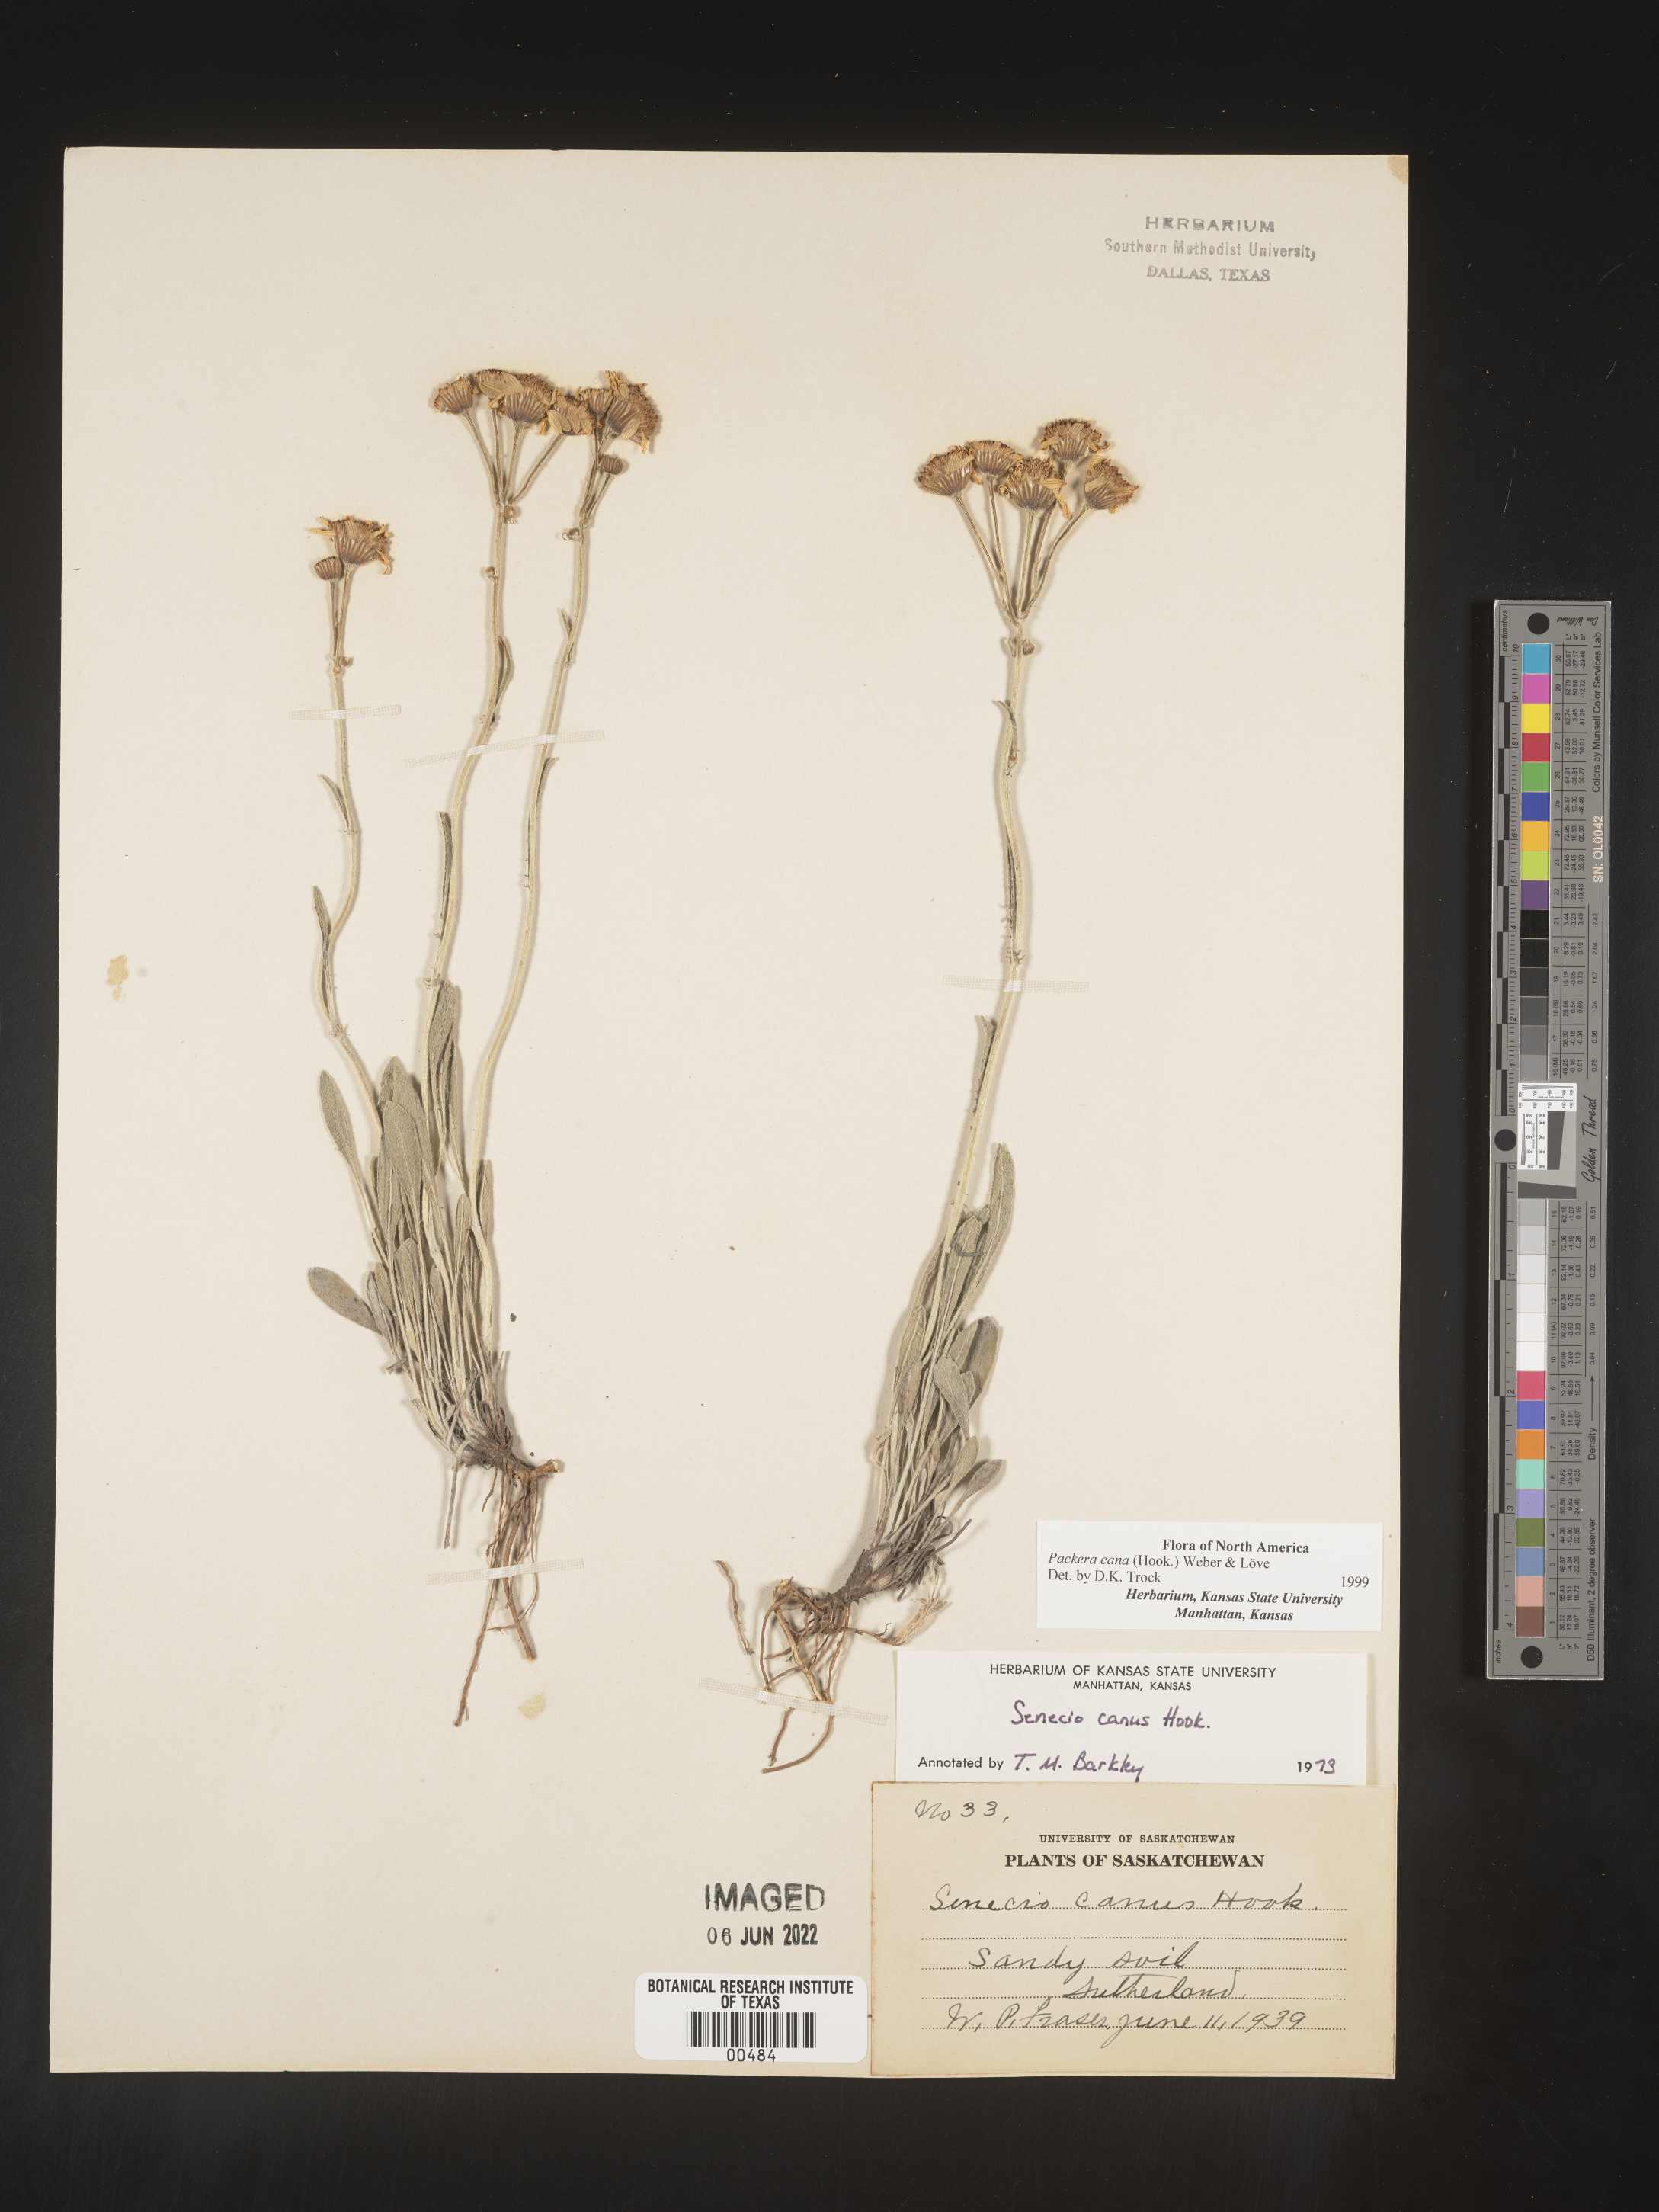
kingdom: Plantae
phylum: Tracheophyta
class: Magnoliopsida
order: Asterales
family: Asteraceae
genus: Packera
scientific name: Packera cana
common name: Woolly groundsel
